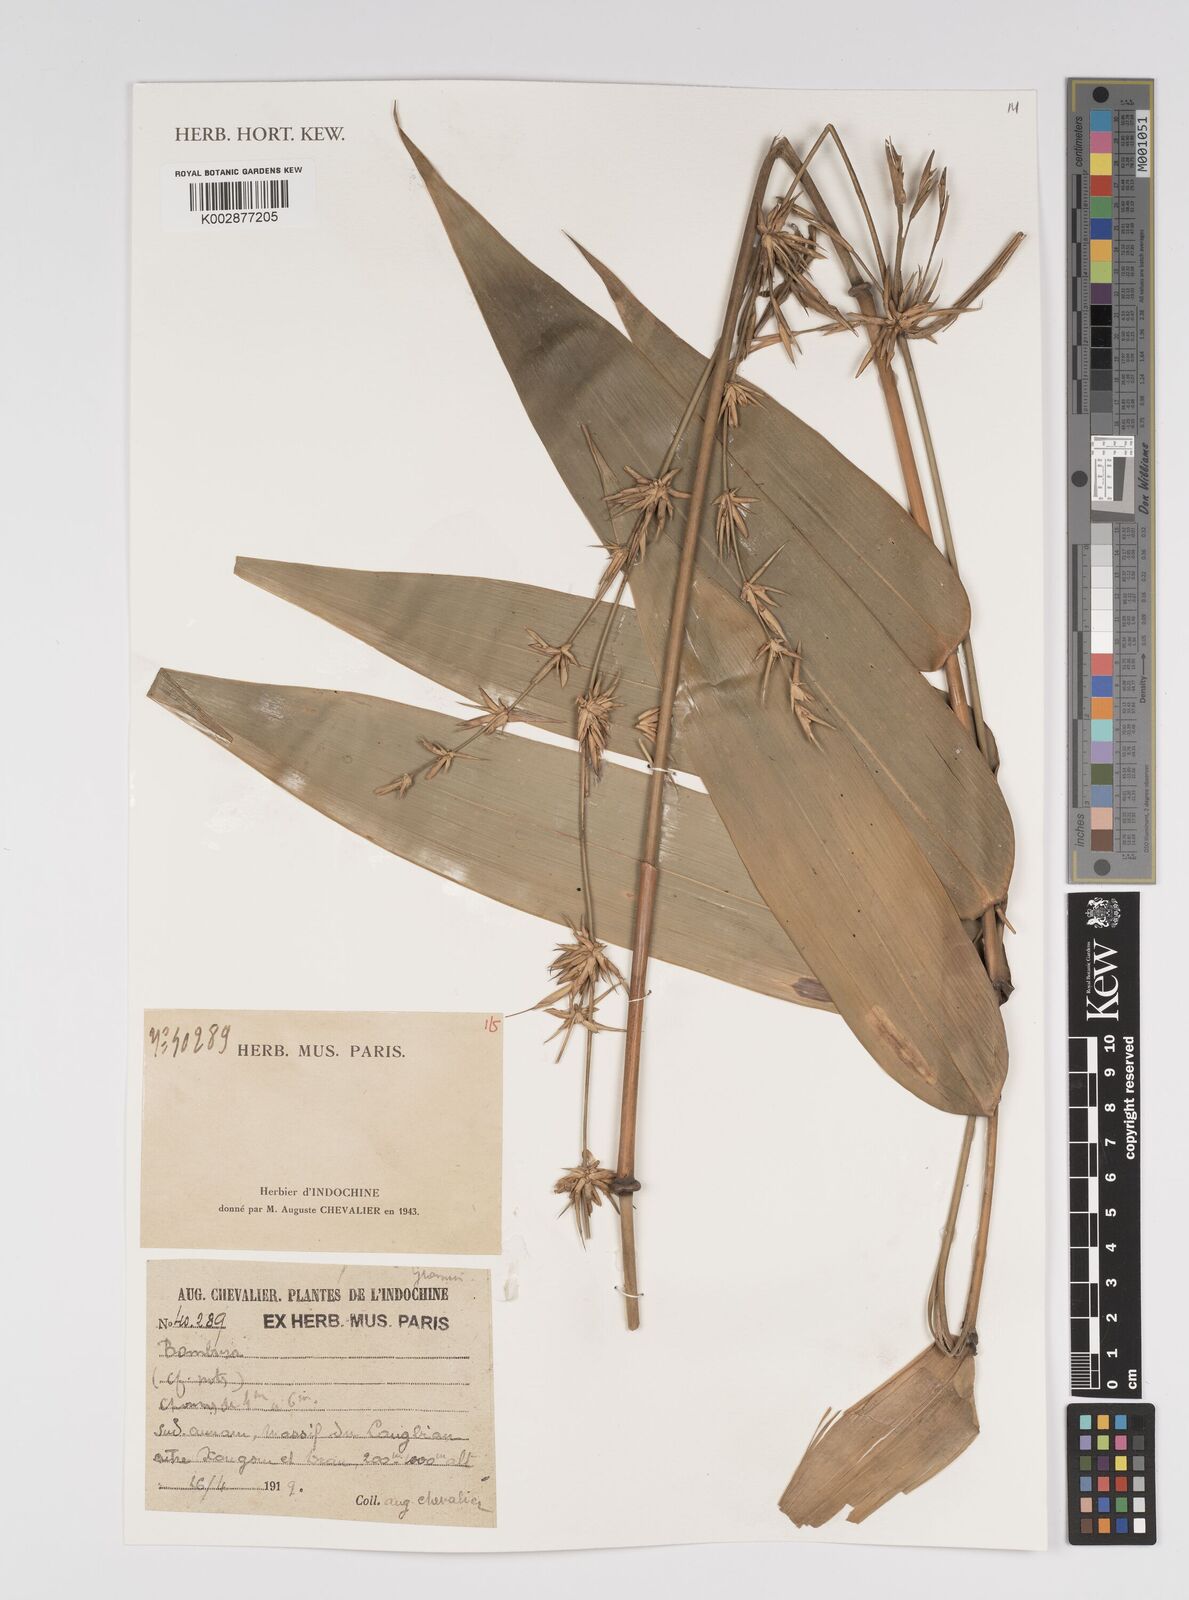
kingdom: Plantae
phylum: Tracheophyta
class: Liliopsida
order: Poales
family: Poaceae
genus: Bambusa
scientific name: Bambusa
